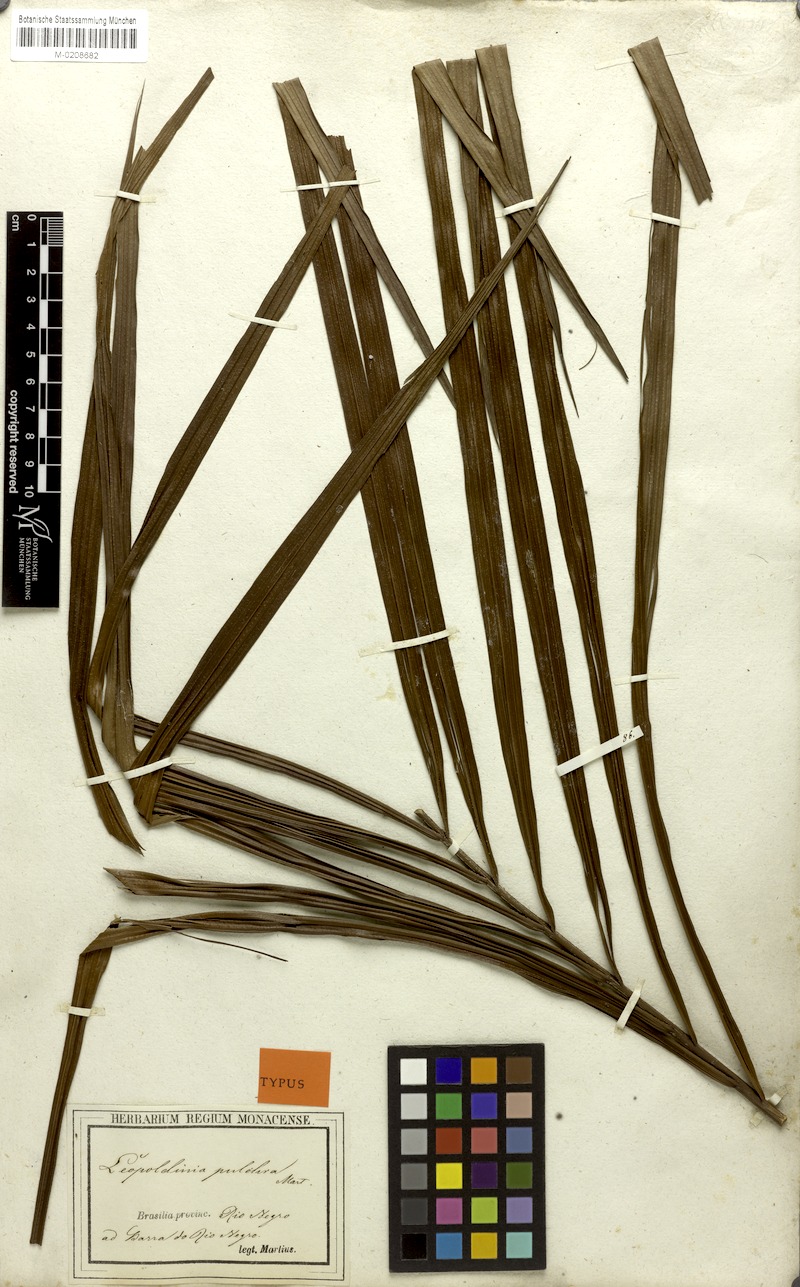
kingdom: Plantae
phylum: Tracheophyta
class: Liliopsida
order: Arecales
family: Arecaceae
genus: Leopoldinia
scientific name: Leopoldinia pulchra
